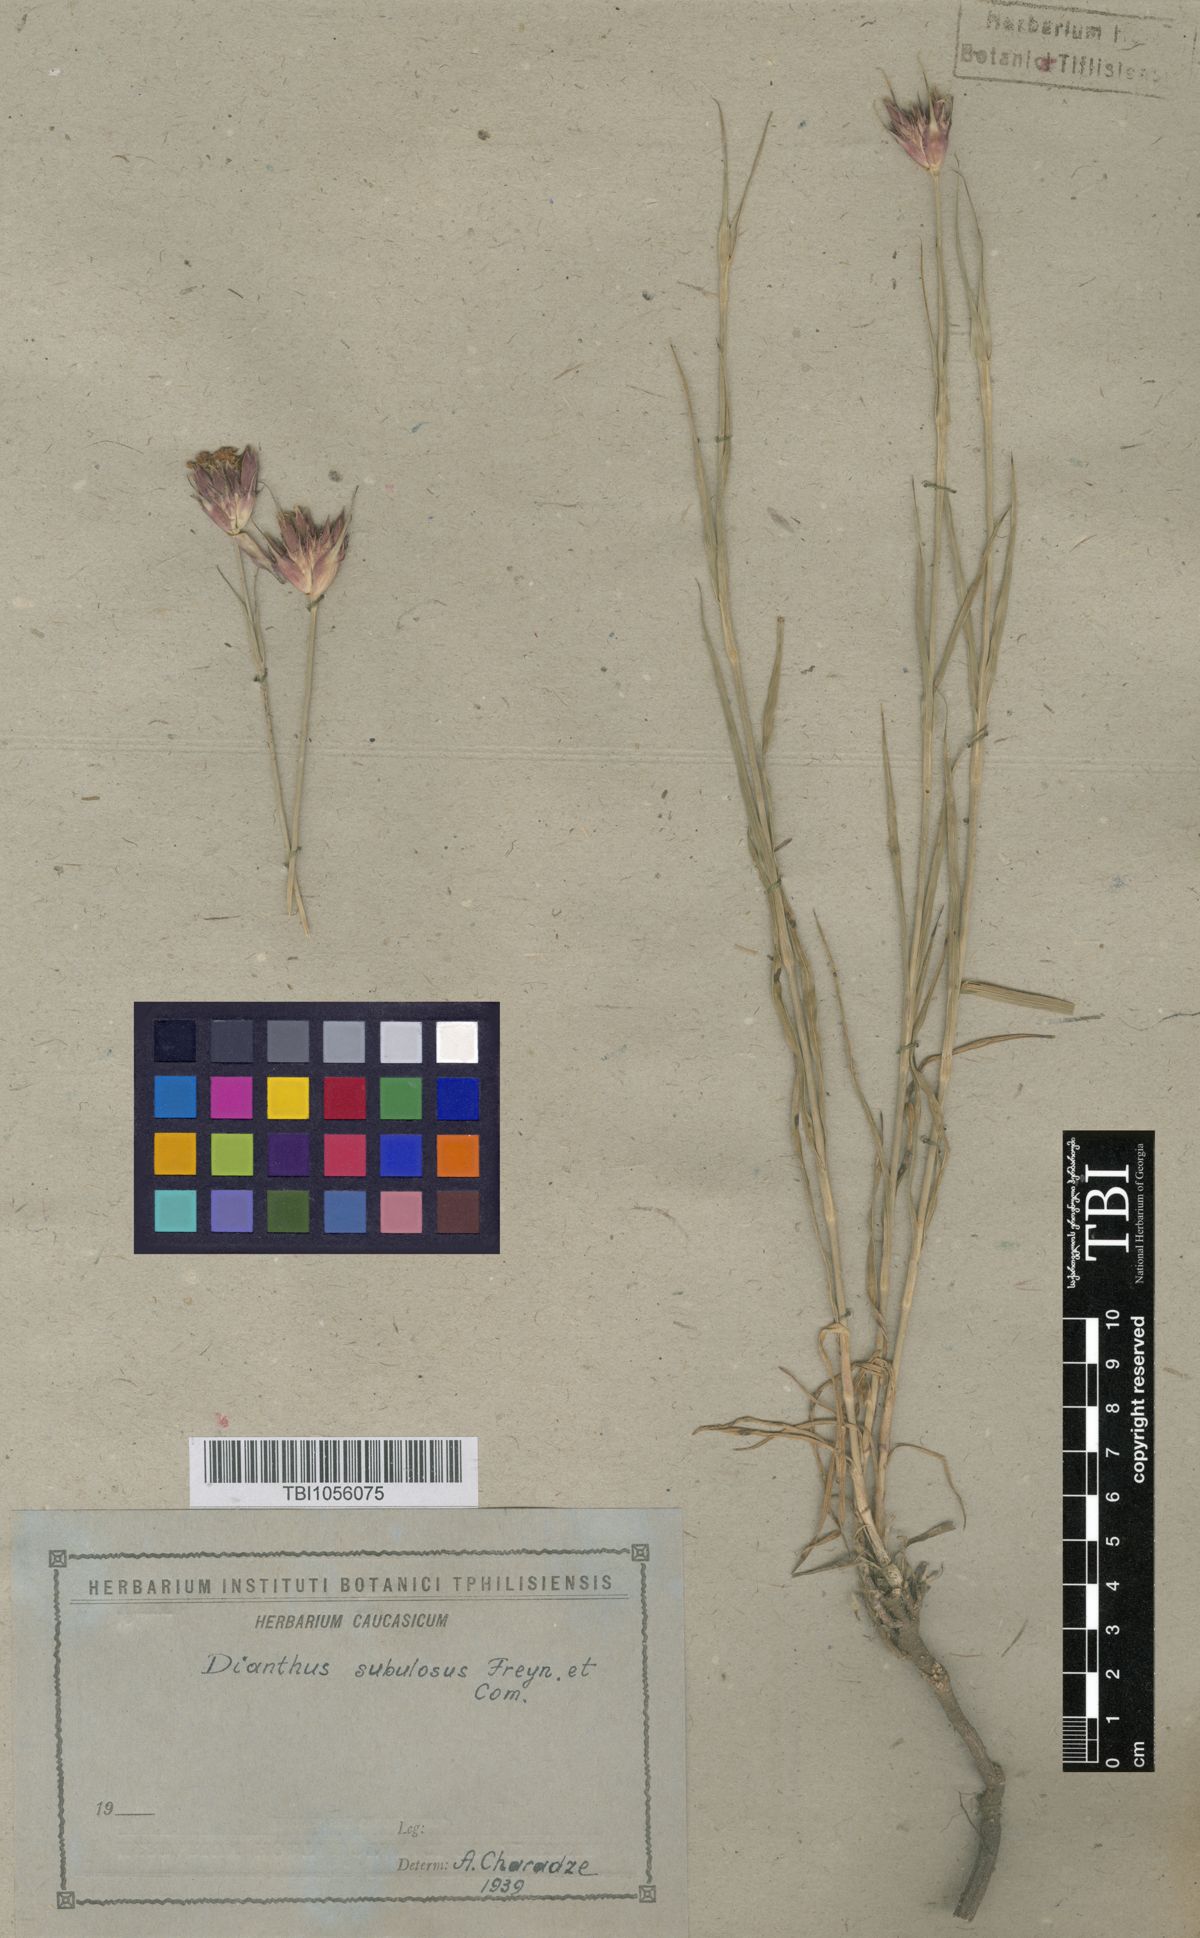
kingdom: Plantae
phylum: Tracheophyta
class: Magnoliopsida
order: Caryophyllales
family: Caryophyllaceae
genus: Dianthus
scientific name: Dianthus subulosus
